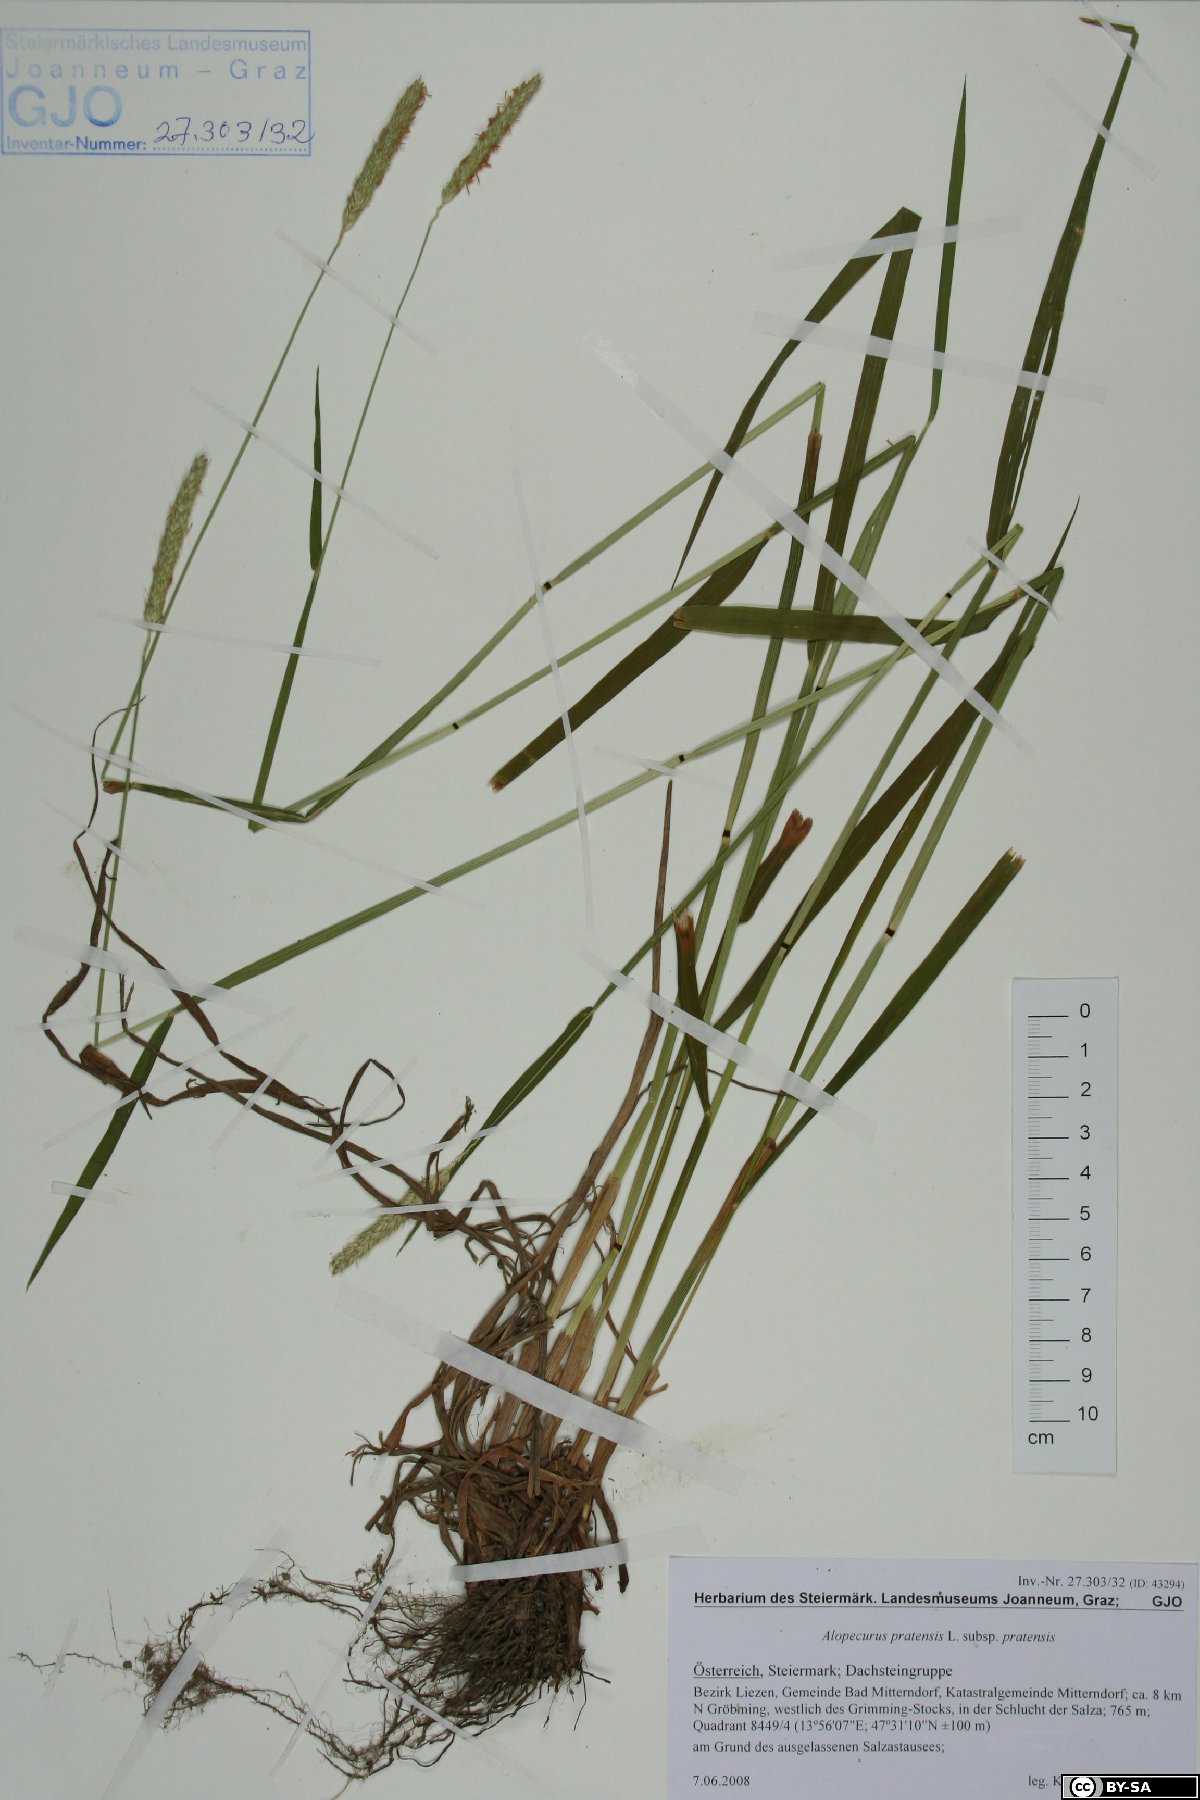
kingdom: Plantae
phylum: Tracheophyta
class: Liliopsida
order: Poales
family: Poaceae
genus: Alopecurus
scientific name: Alopecurus pratensis
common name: Meadow foxtail
